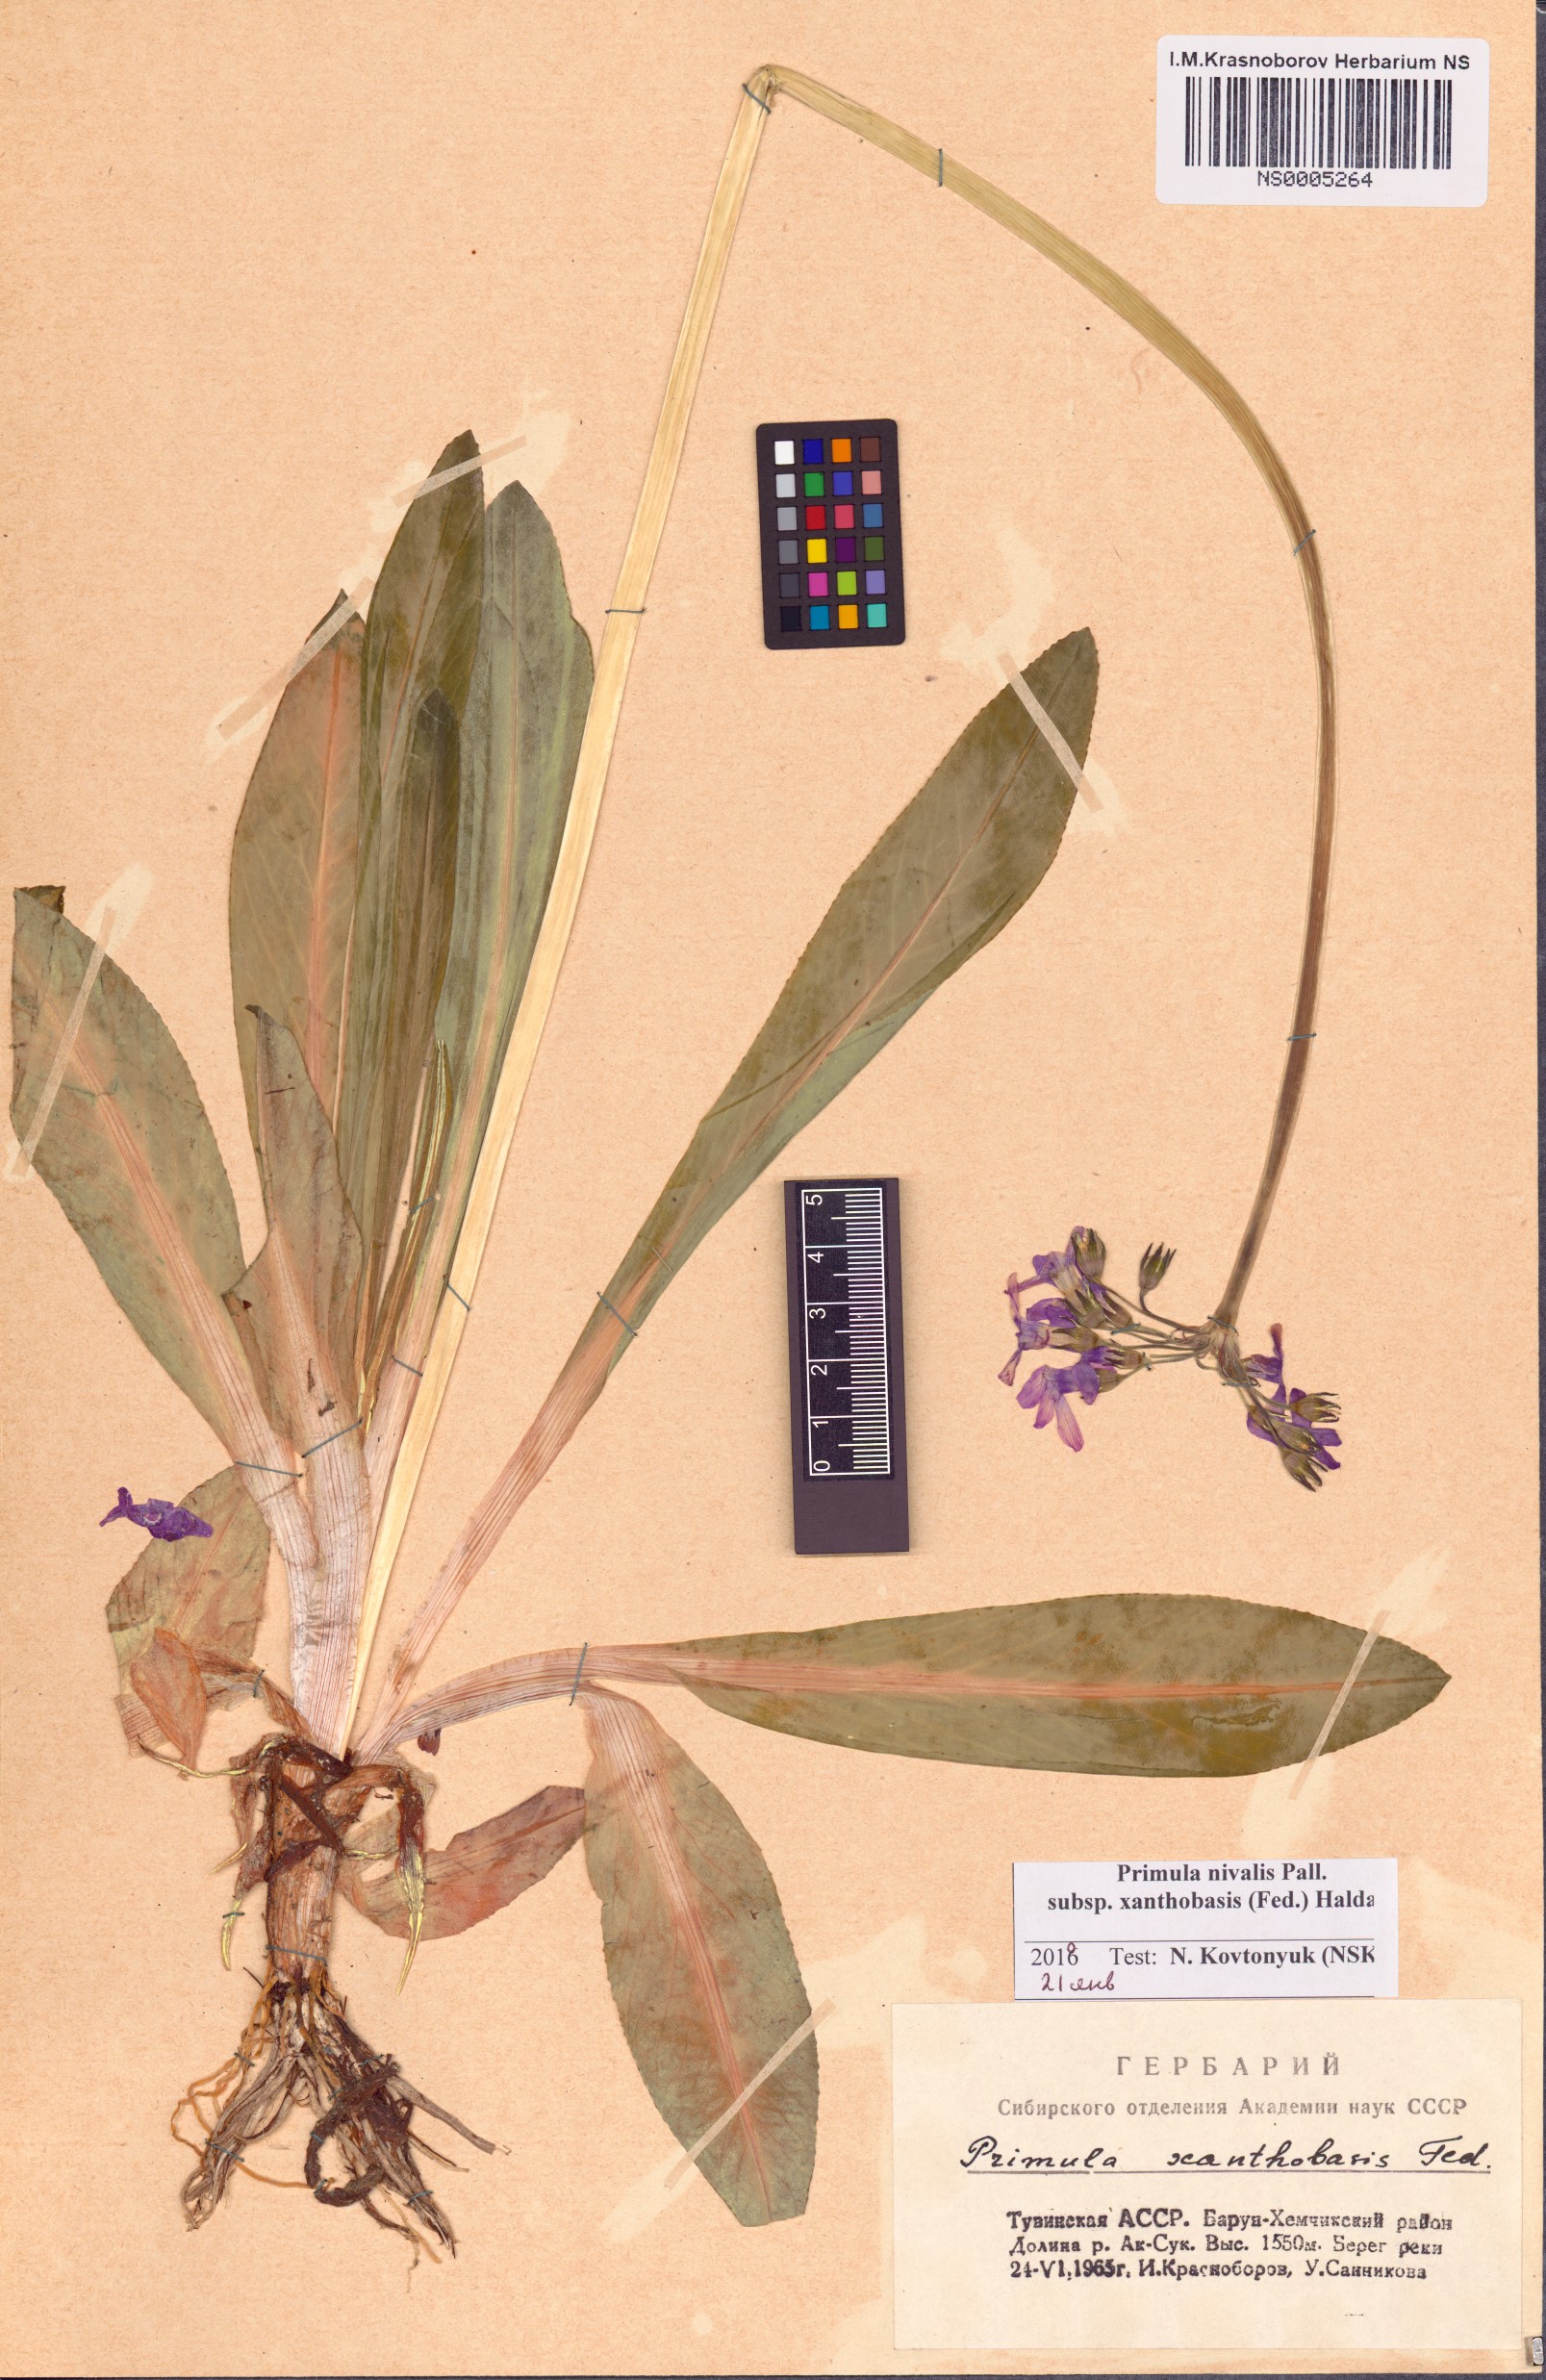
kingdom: Plantae
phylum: Tracheophyta
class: Magnoliopsida
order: Ericales
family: Primulaceae
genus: Primula
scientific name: Primula nivalis
